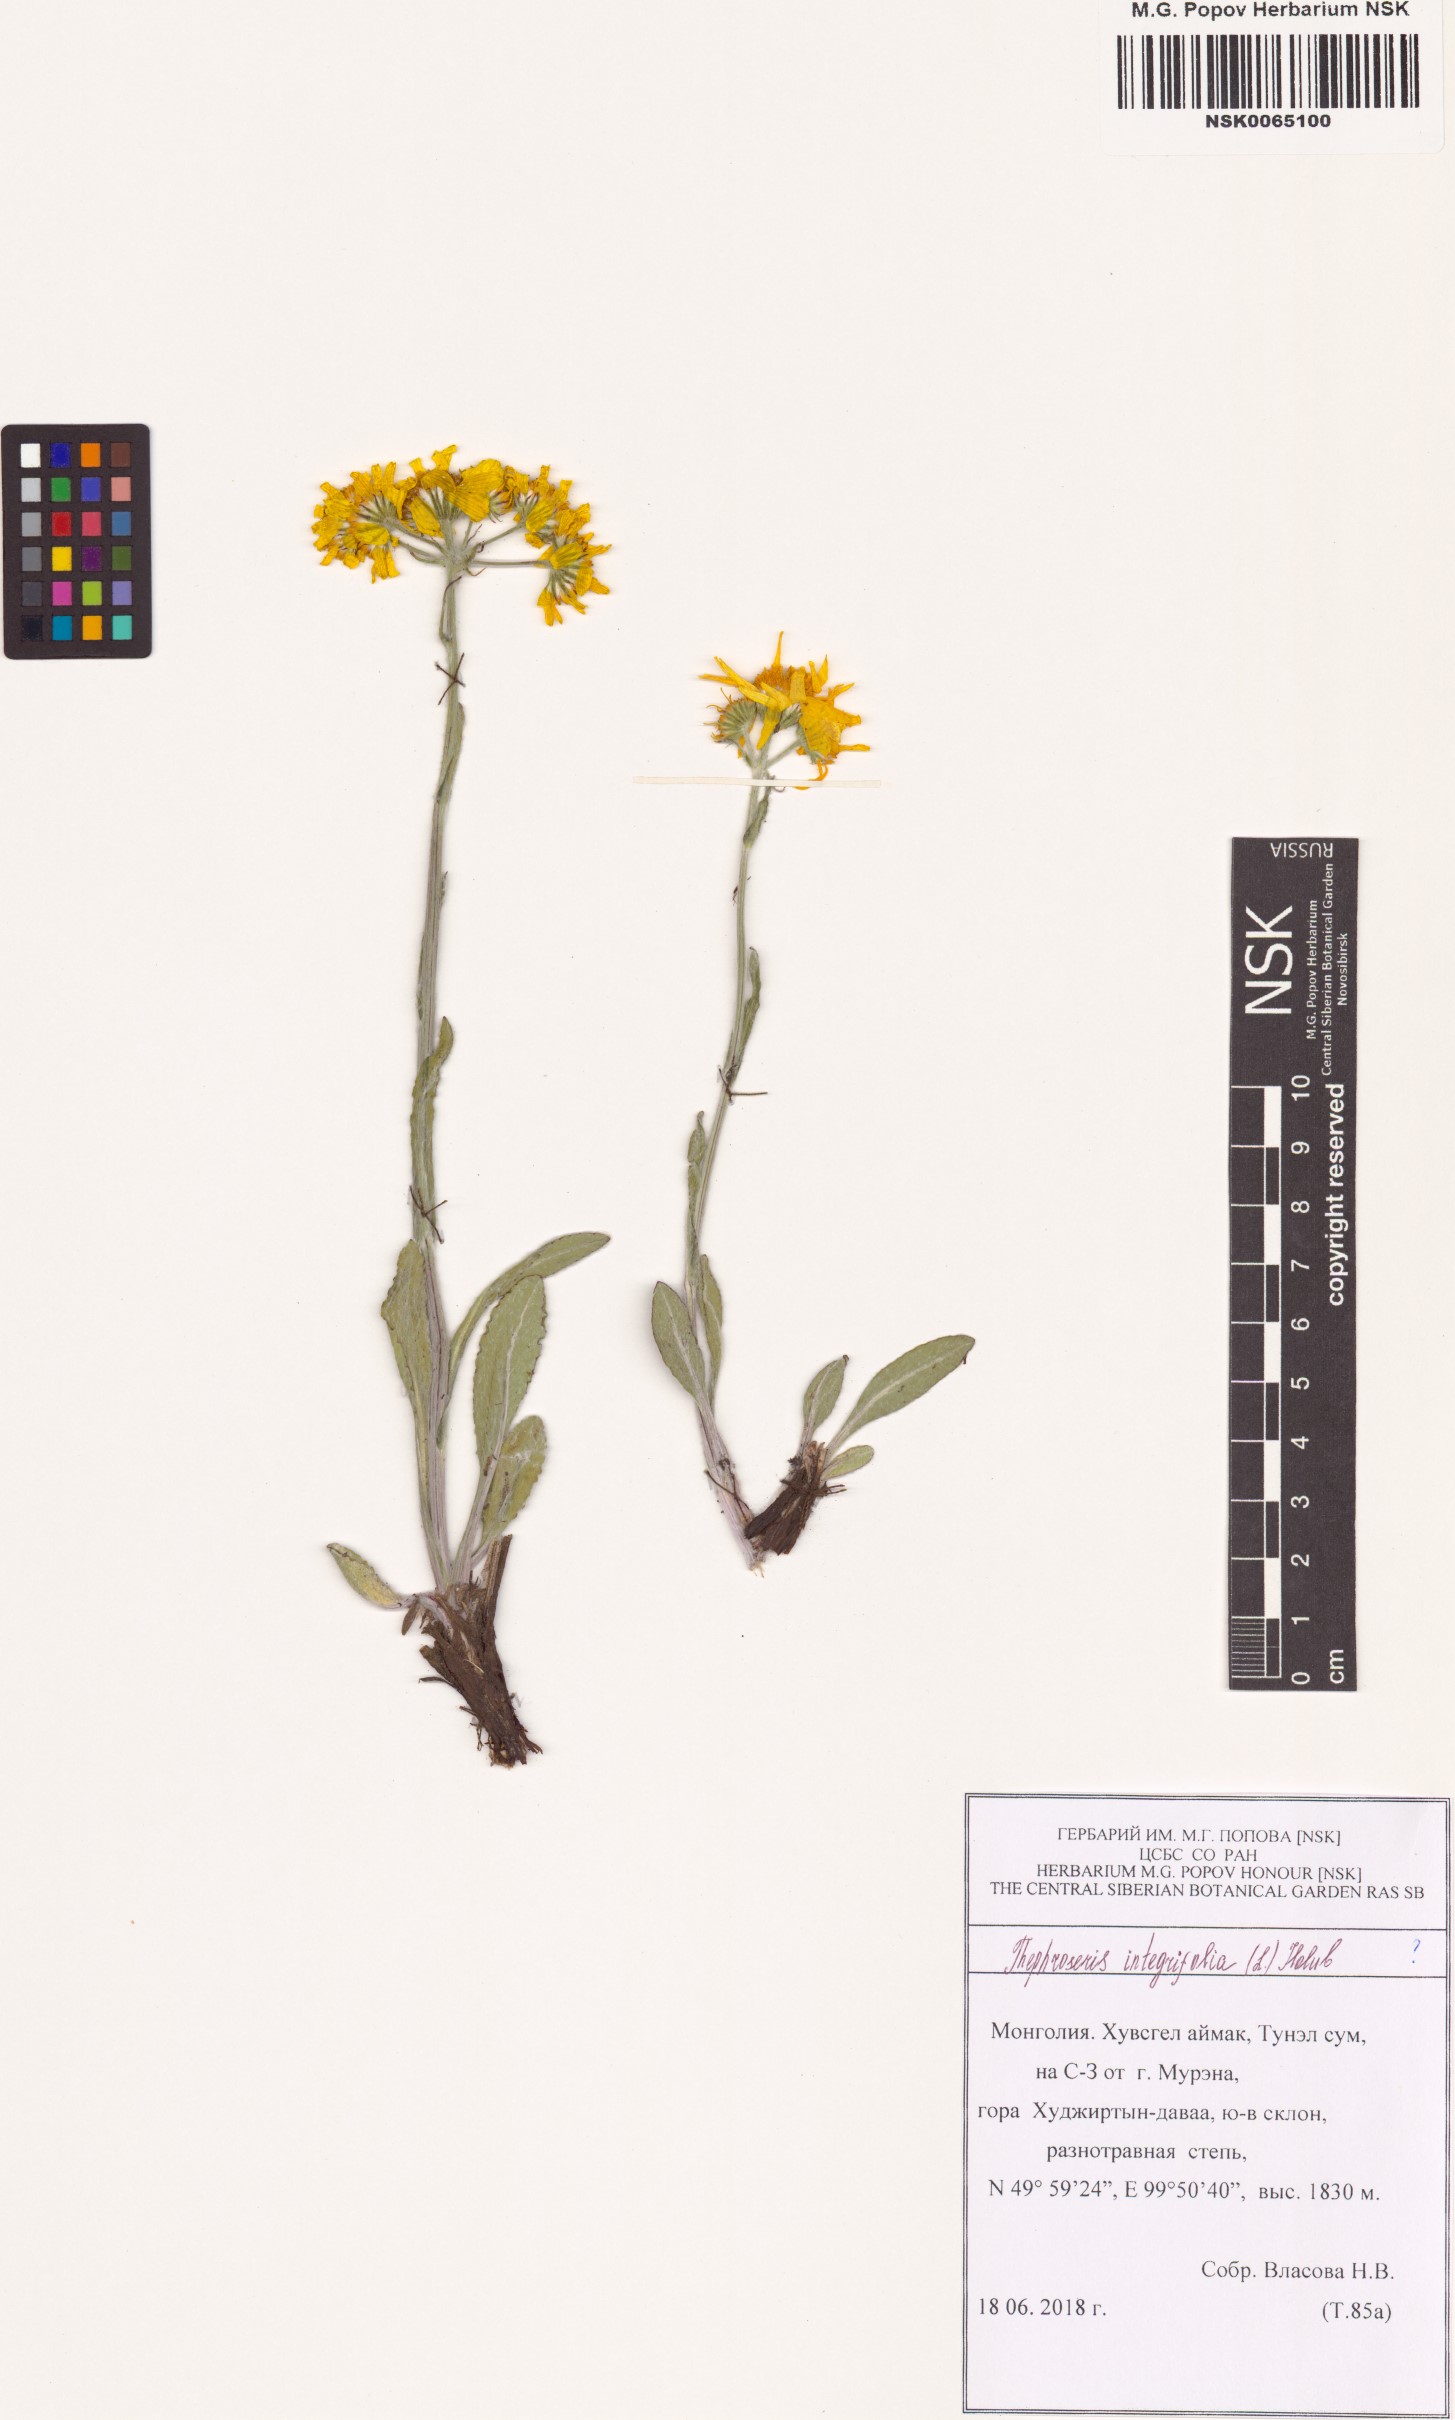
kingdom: Plantae
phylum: Tracheophyta
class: Magnoliopsida
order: Asterales
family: Asteraceae
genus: Tephroseris
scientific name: Tephroseris integrifolia
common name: Field fleawort
